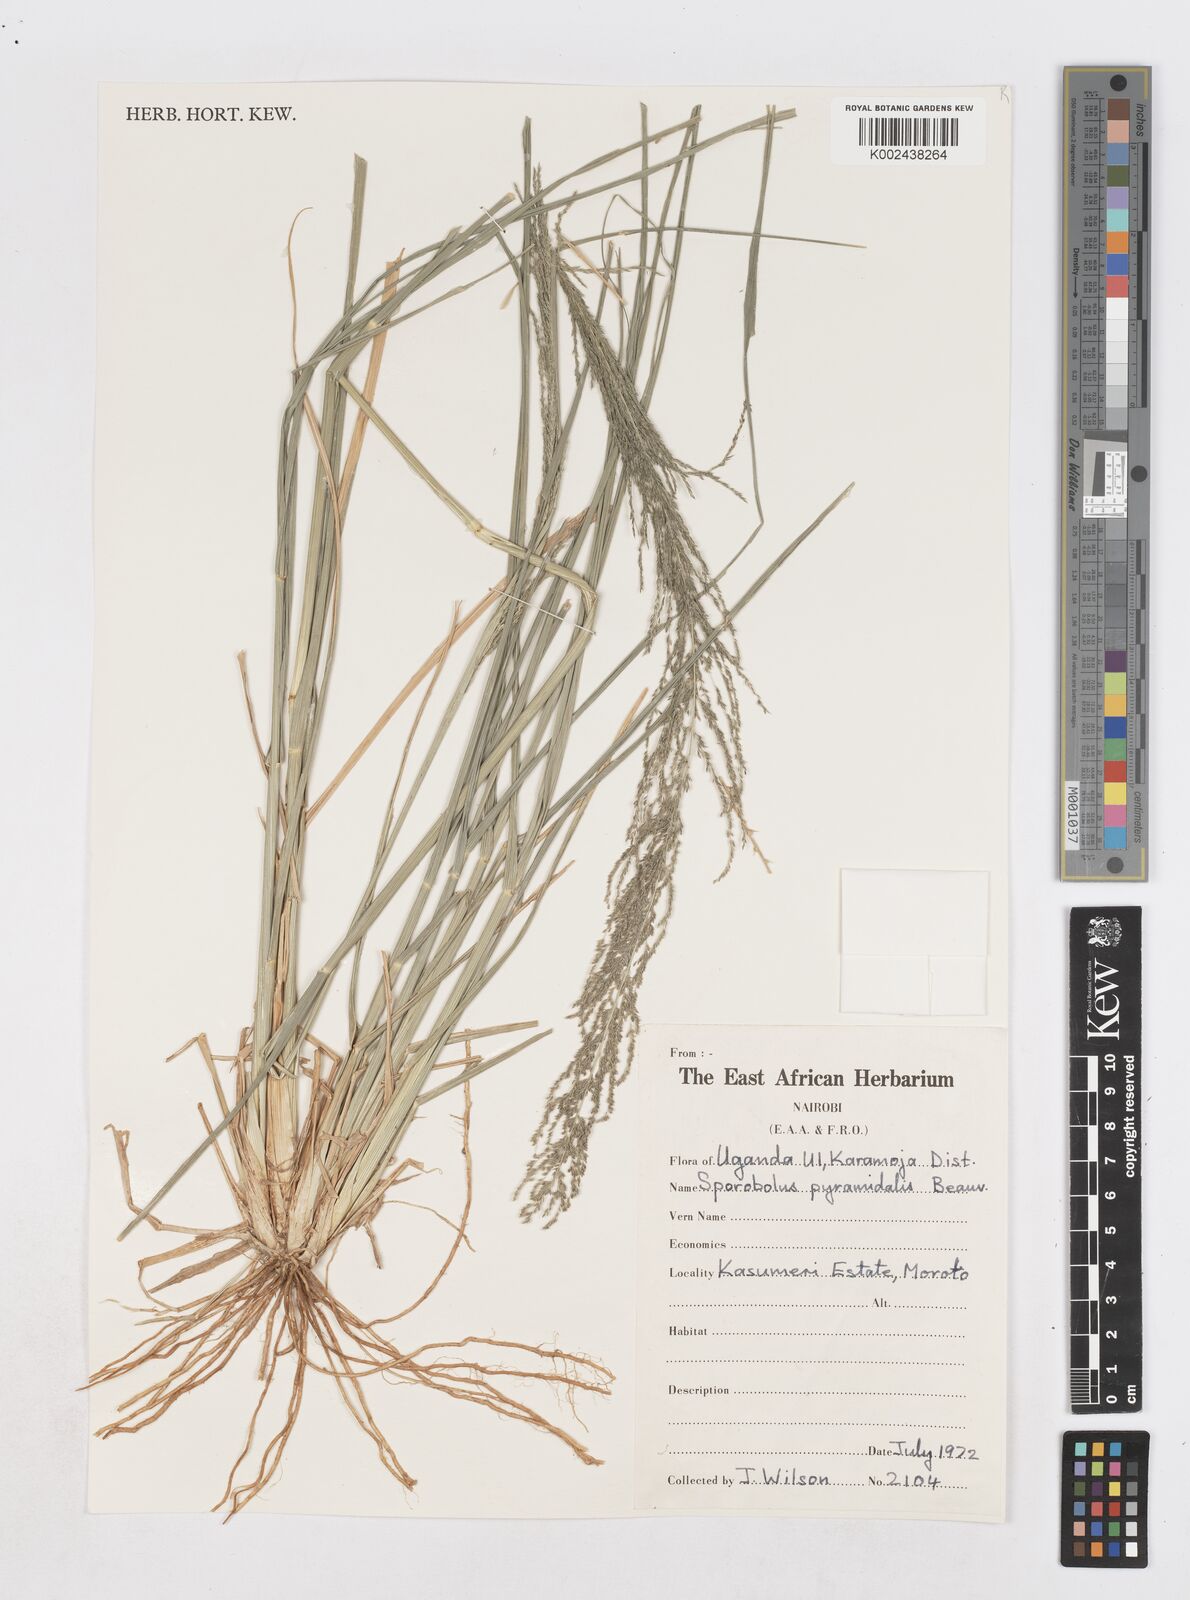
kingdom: Plantae
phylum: Tracheophyta
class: Liliopsida
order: Poales
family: Poaceae
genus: Sporobolus
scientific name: Sporobolus pyramidalis
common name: West indian dropseed
